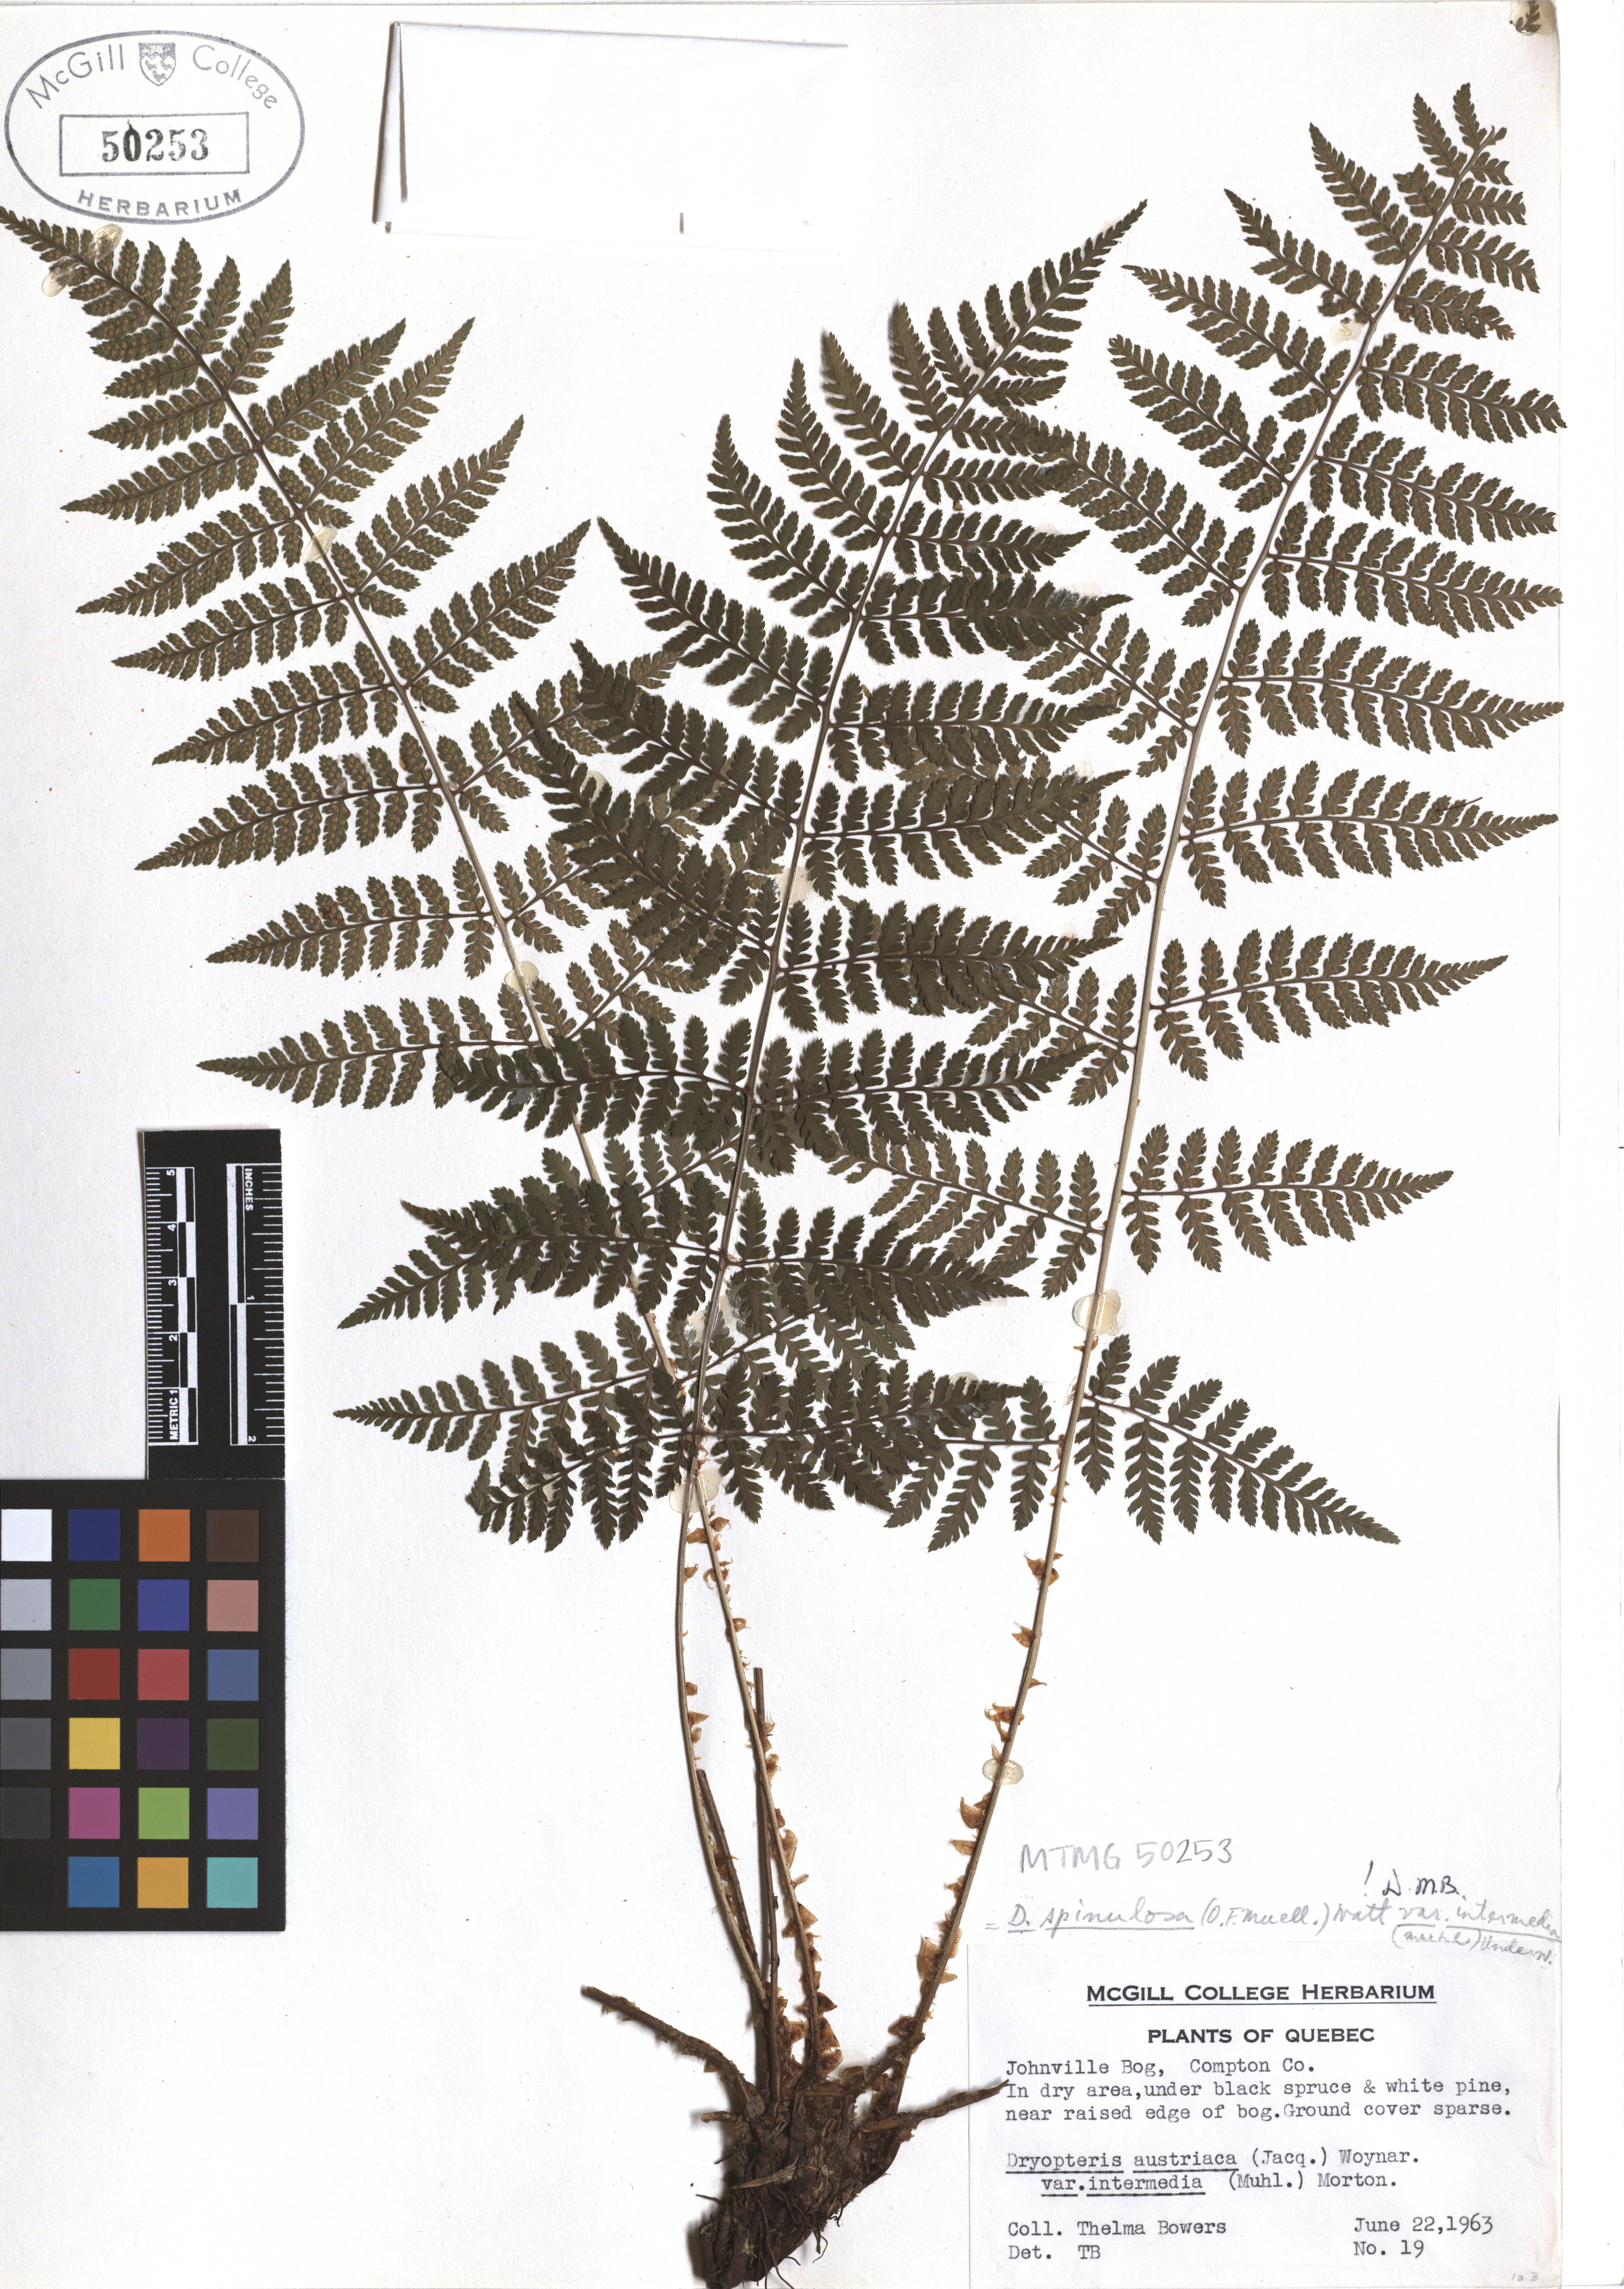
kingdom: Plantae
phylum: Tracheophyta
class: Polypodiopsida
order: Polypodiales
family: Dryopteridaceae
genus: Dryopteris
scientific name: Dryopteris intermedia
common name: Evergreen wood fern
